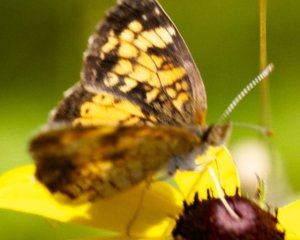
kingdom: Animalia
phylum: Arthropoda
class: Insecta
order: Lepidoptera
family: Nymphalidae
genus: Phyciodes
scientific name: Phyciodes tharos
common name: Northern Crescent
